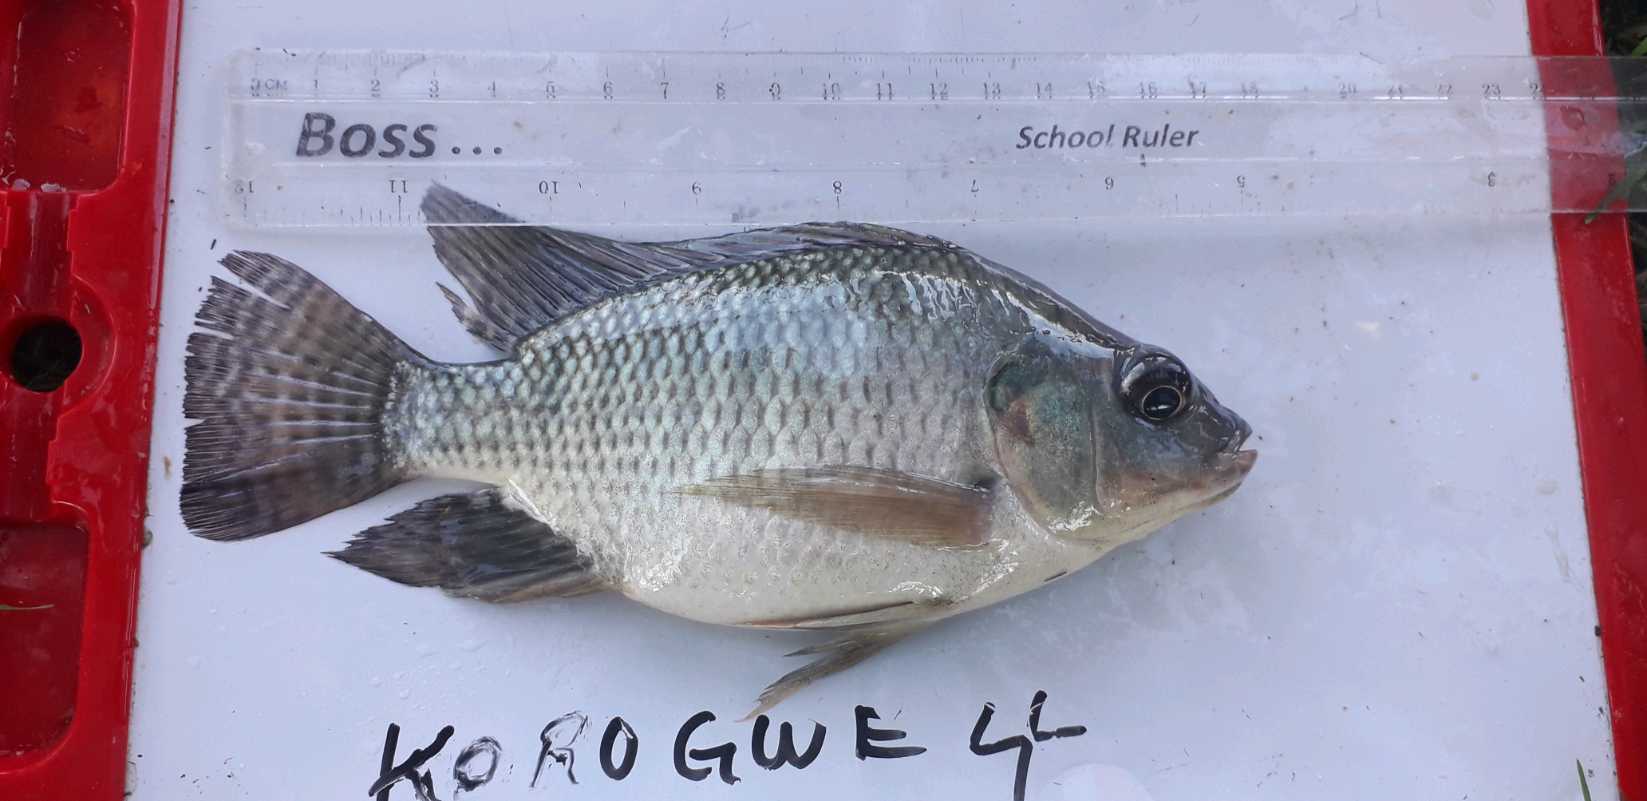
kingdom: Animalia
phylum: Chordata
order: Perciformes
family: Cichlidae
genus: Oreochromis
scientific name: Oreochromis niloticus
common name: Nile tilapia
